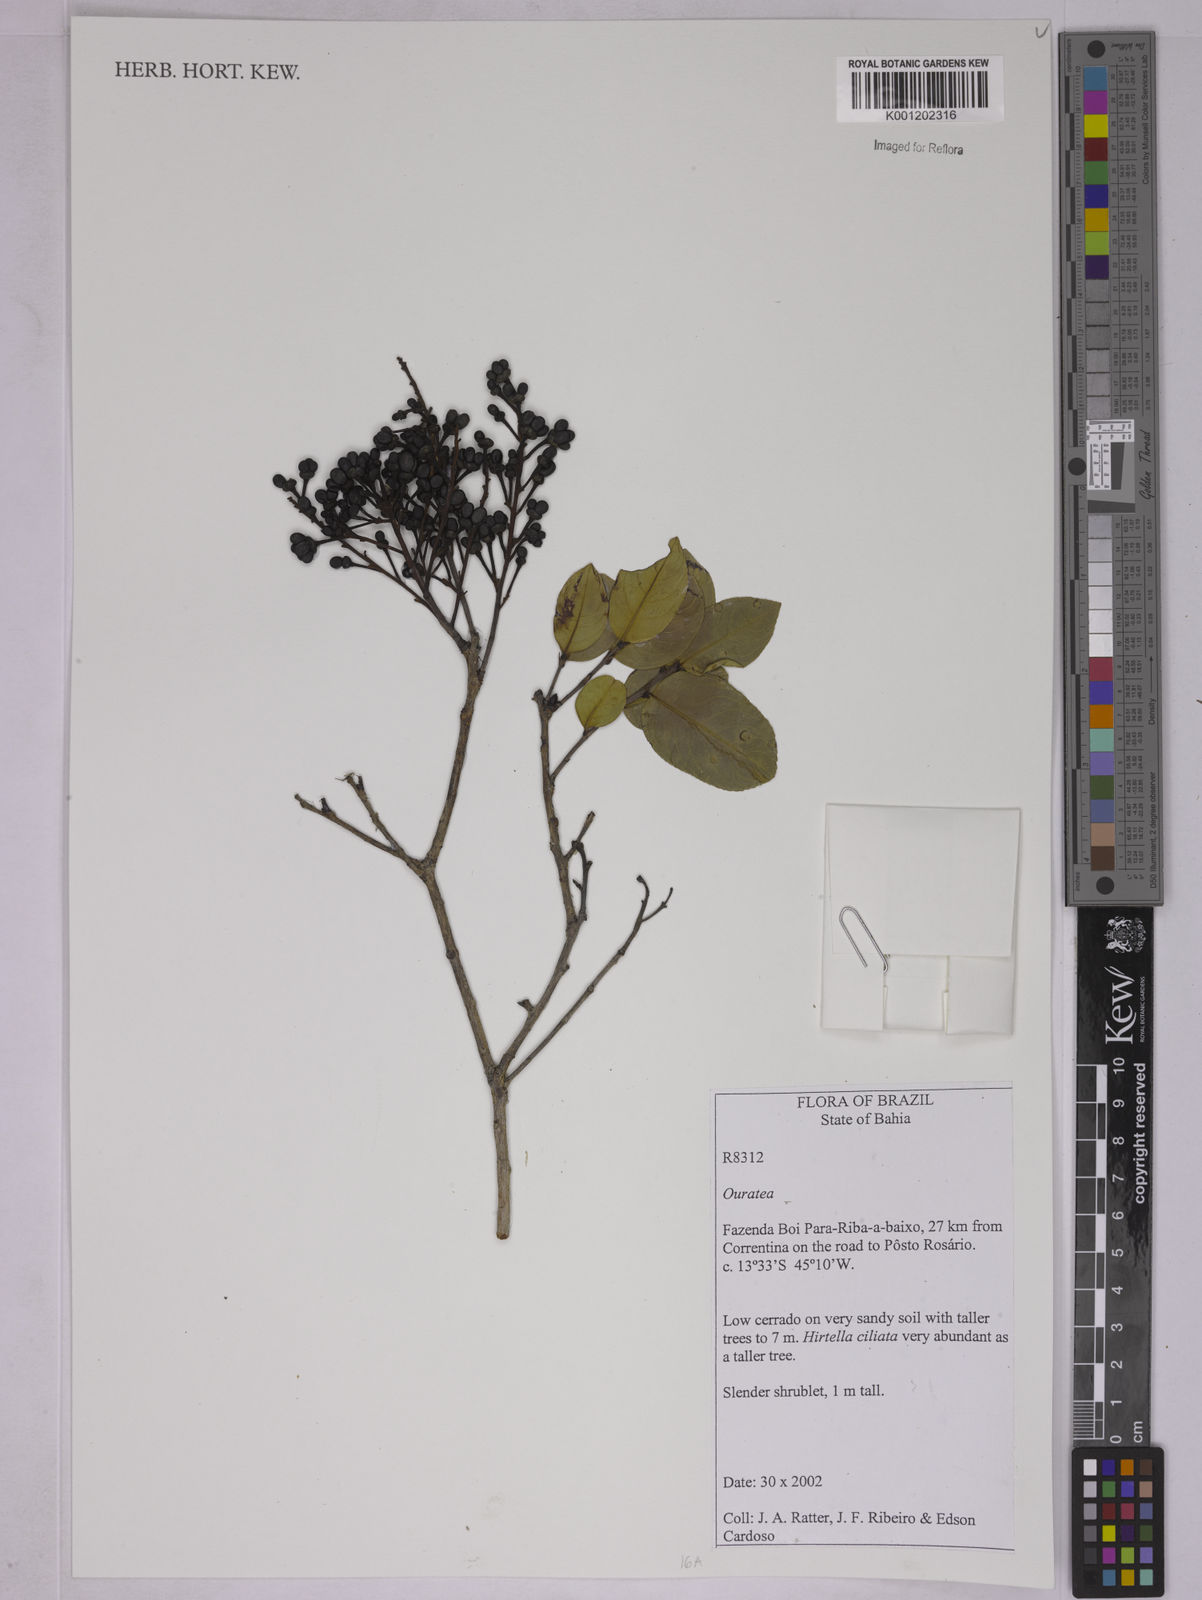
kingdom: Plantae
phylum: Tracheophyta
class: Magnoliopsida
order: Malpighiales
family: Ochnaceae
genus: Ouratea
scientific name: Ouratea
